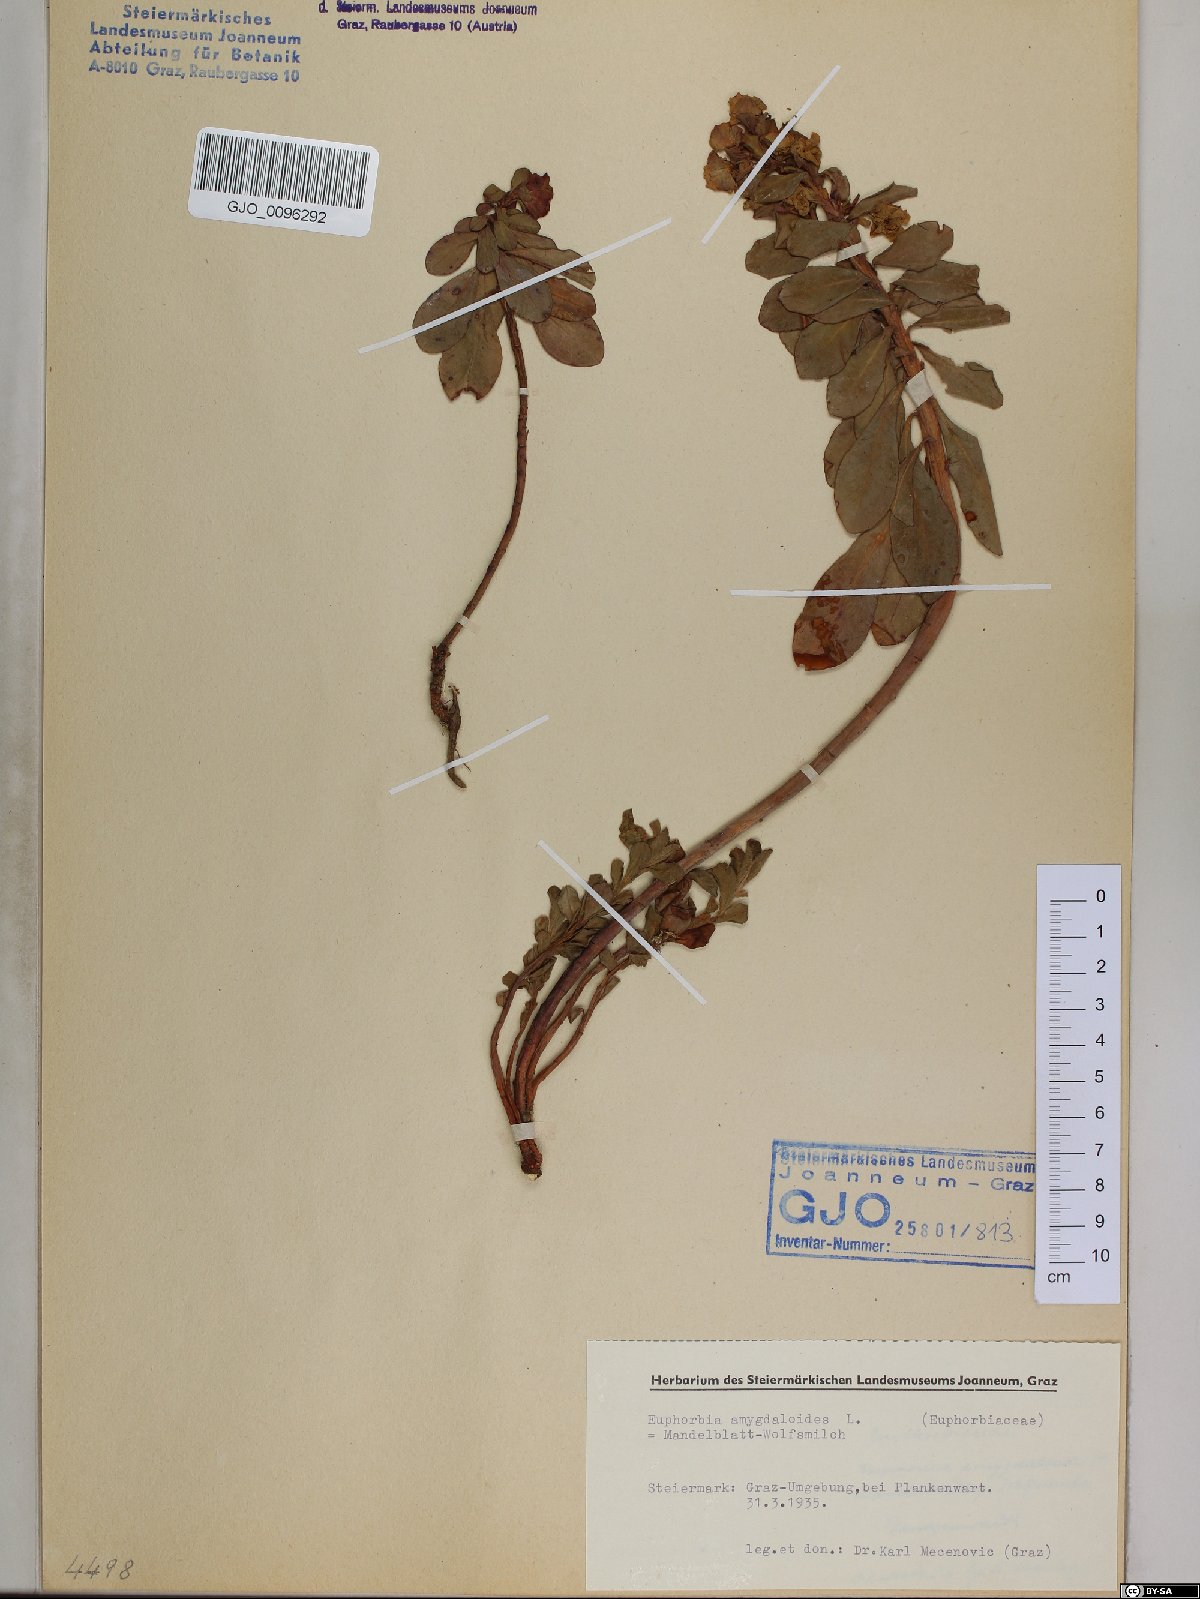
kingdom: Plantae
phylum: Tracheophyta
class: Magnoliopsida
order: Malpighiales
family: Euphorbiaceae
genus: Euphorbia
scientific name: Euphorbia amygdaloides
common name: Wood spurge
